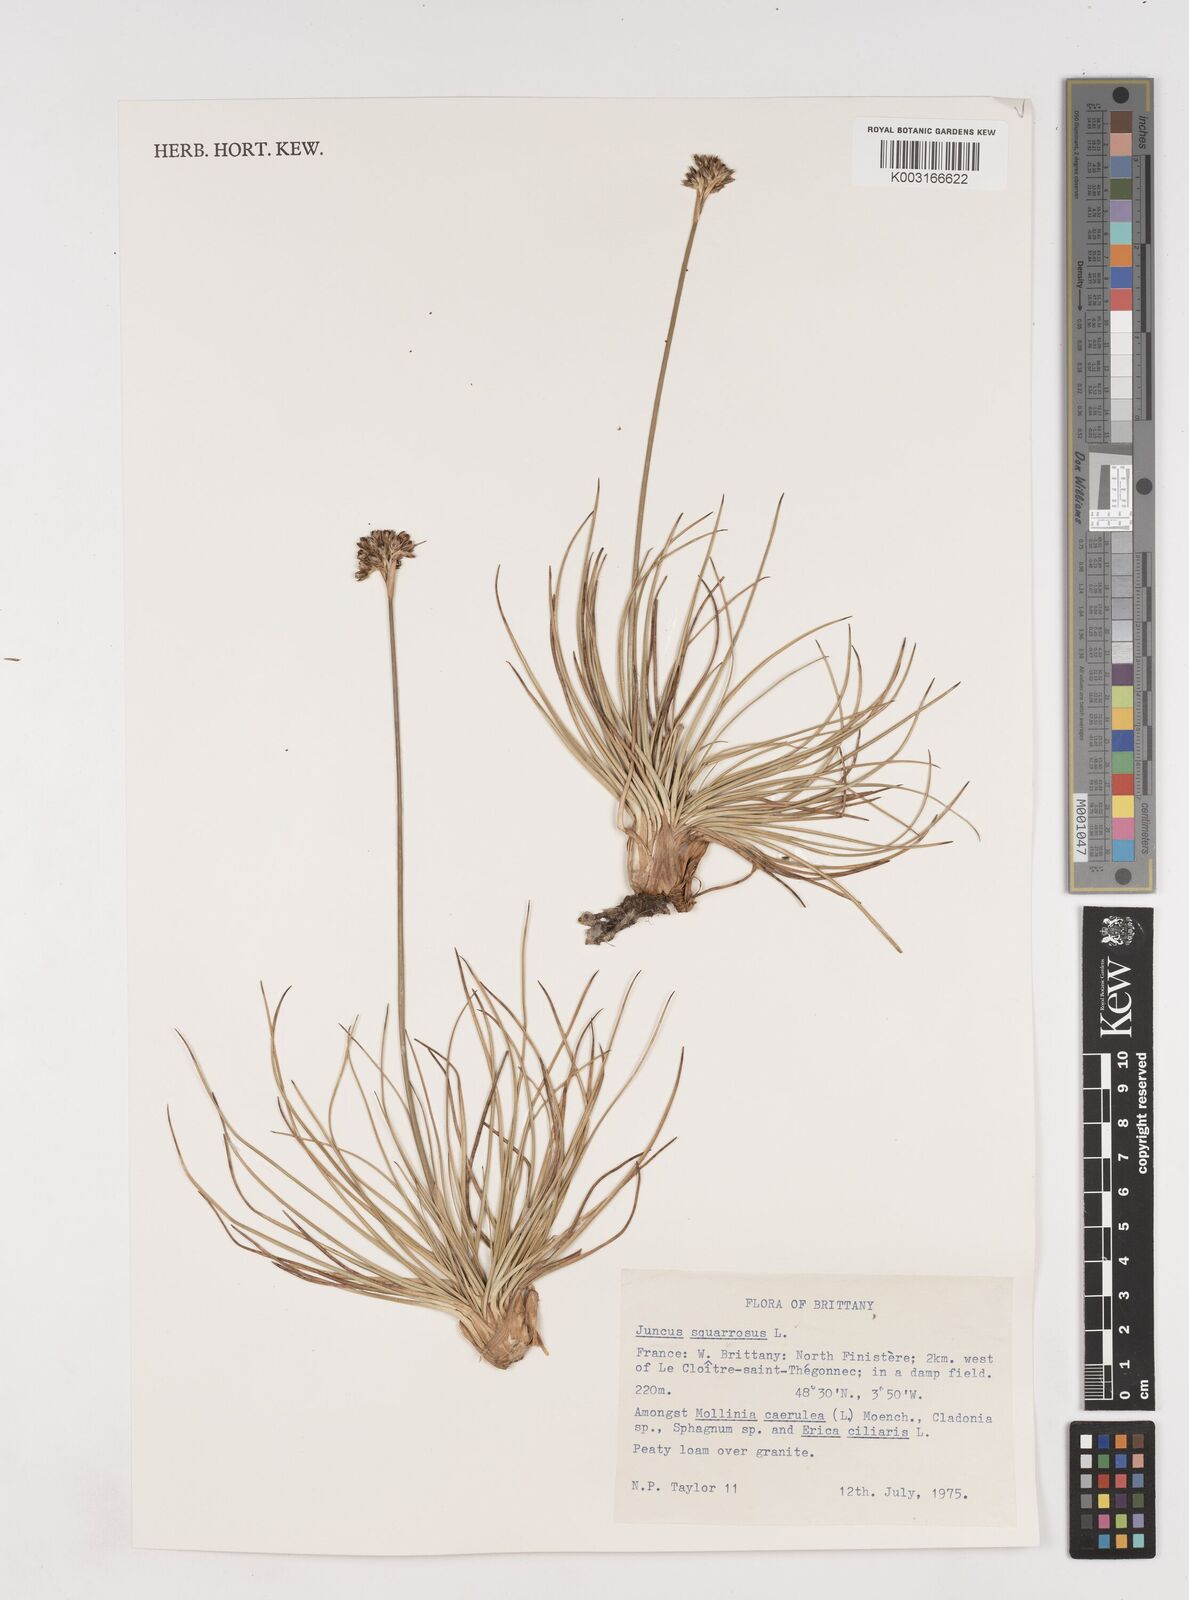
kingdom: Plantae
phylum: Tracheophyta
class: Liliopsida
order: Poales
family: Juncaceae
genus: Juncus
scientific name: Juncus squarrosus
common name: Heath rush
